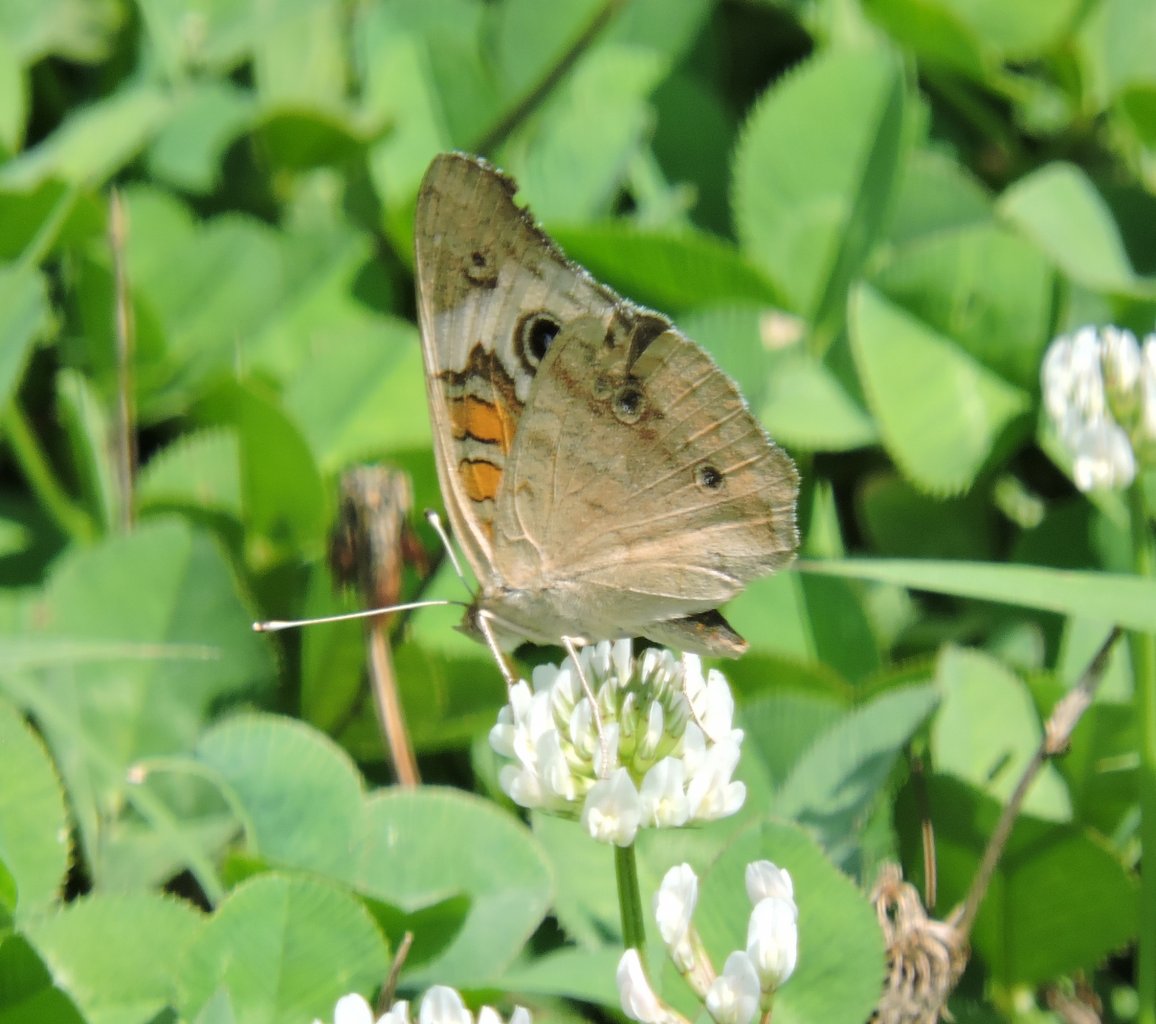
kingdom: Animalia
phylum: Arthropoda
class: Insecta
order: Lepidoptera
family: Nymphalidae
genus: Junonia
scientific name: Junonia coenia
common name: Common Buckeye
